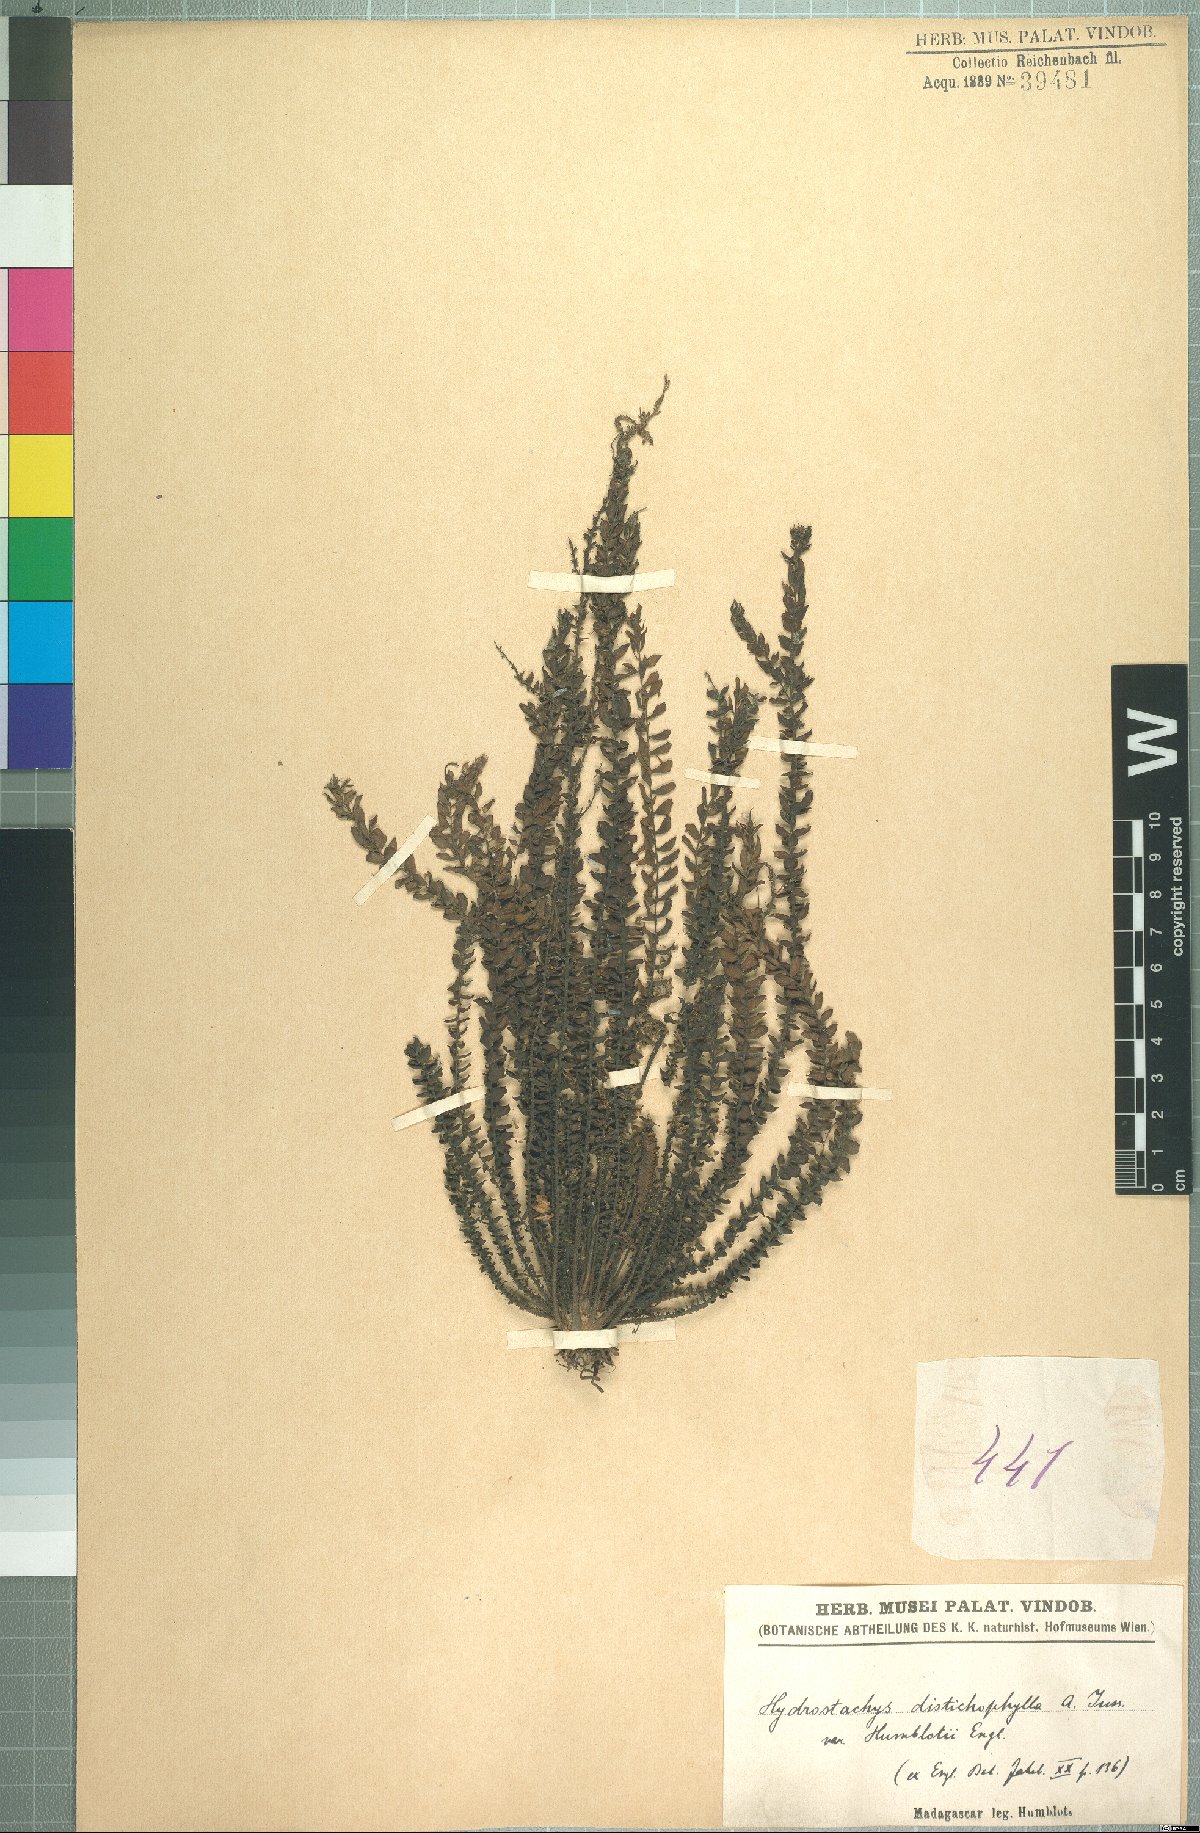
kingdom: Plantae
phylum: Tracheophyta
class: Magnoliopsida
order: Cornales
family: Hydrostachyaceae
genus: Hydrostachys
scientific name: Hydrostachys distichophylla
